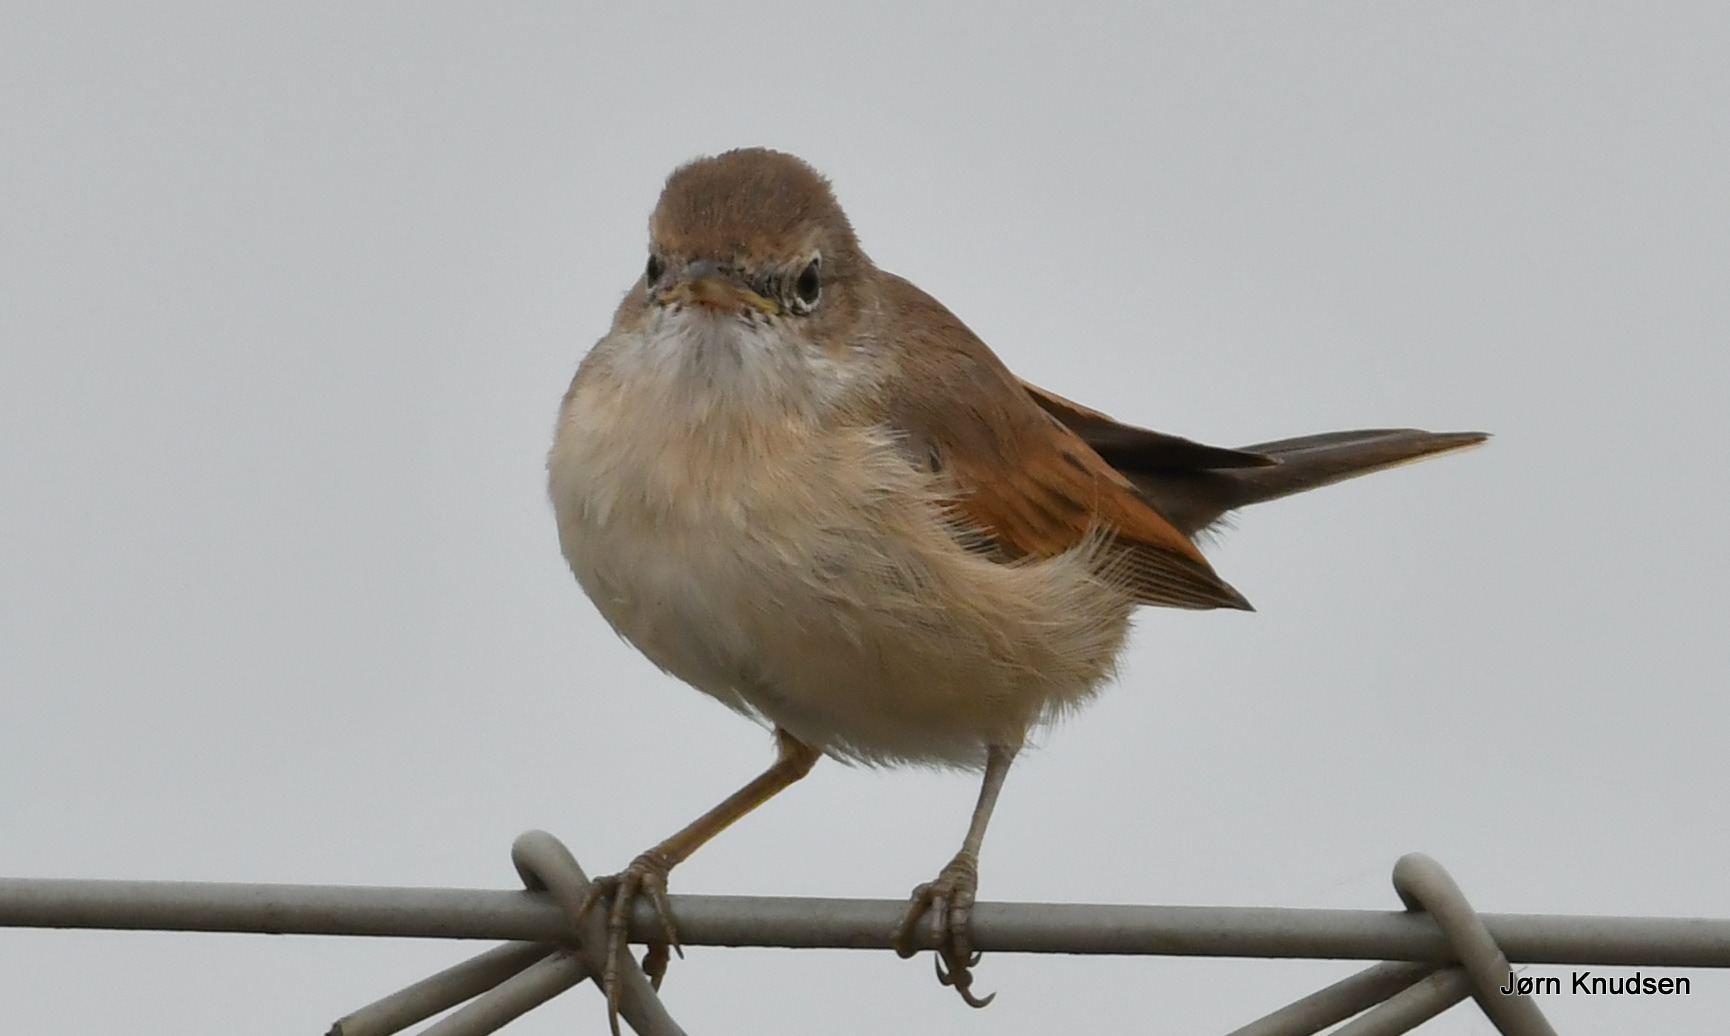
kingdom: Animalia
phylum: Chordata
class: Aves
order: Passeriformes
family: Sylviidae
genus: Sylvia
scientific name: Sylvia communis
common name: Tornsanger
